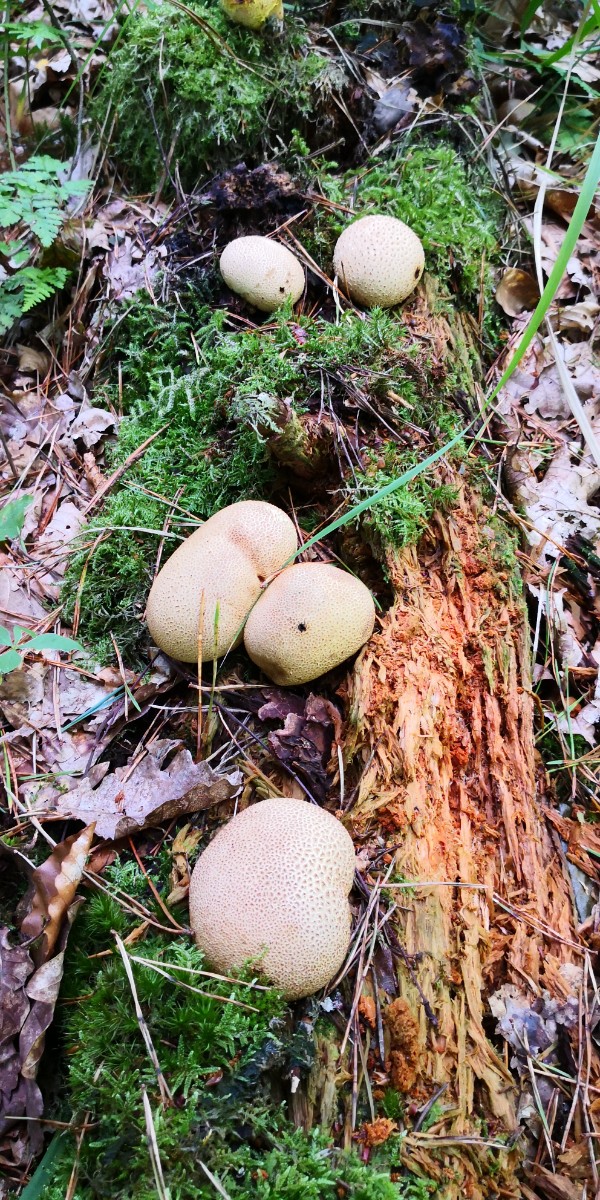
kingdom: Fungi
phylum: Basidiomycota
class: Agaricomycetes
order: Boletales
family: Sclerodermataceae
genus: Scleroderma
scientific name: Scleroderma citrinum
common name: almindelig bruskbold
